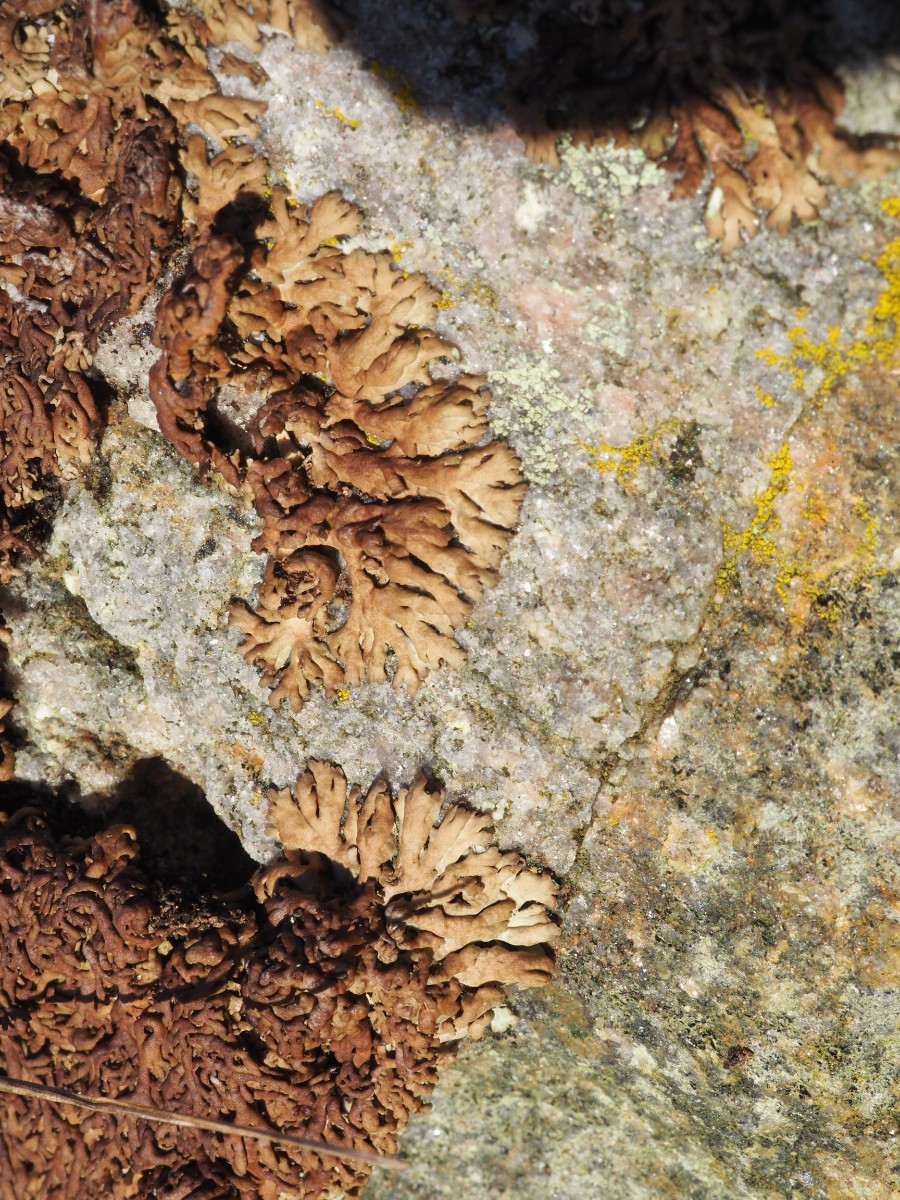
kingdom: Fungi
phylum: Ascomycota
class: Lecanoromycetes
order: Caliciales
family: Physciaceae
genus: Kurokawia
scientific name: Kurokawia runcinata
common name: brun frynselav
